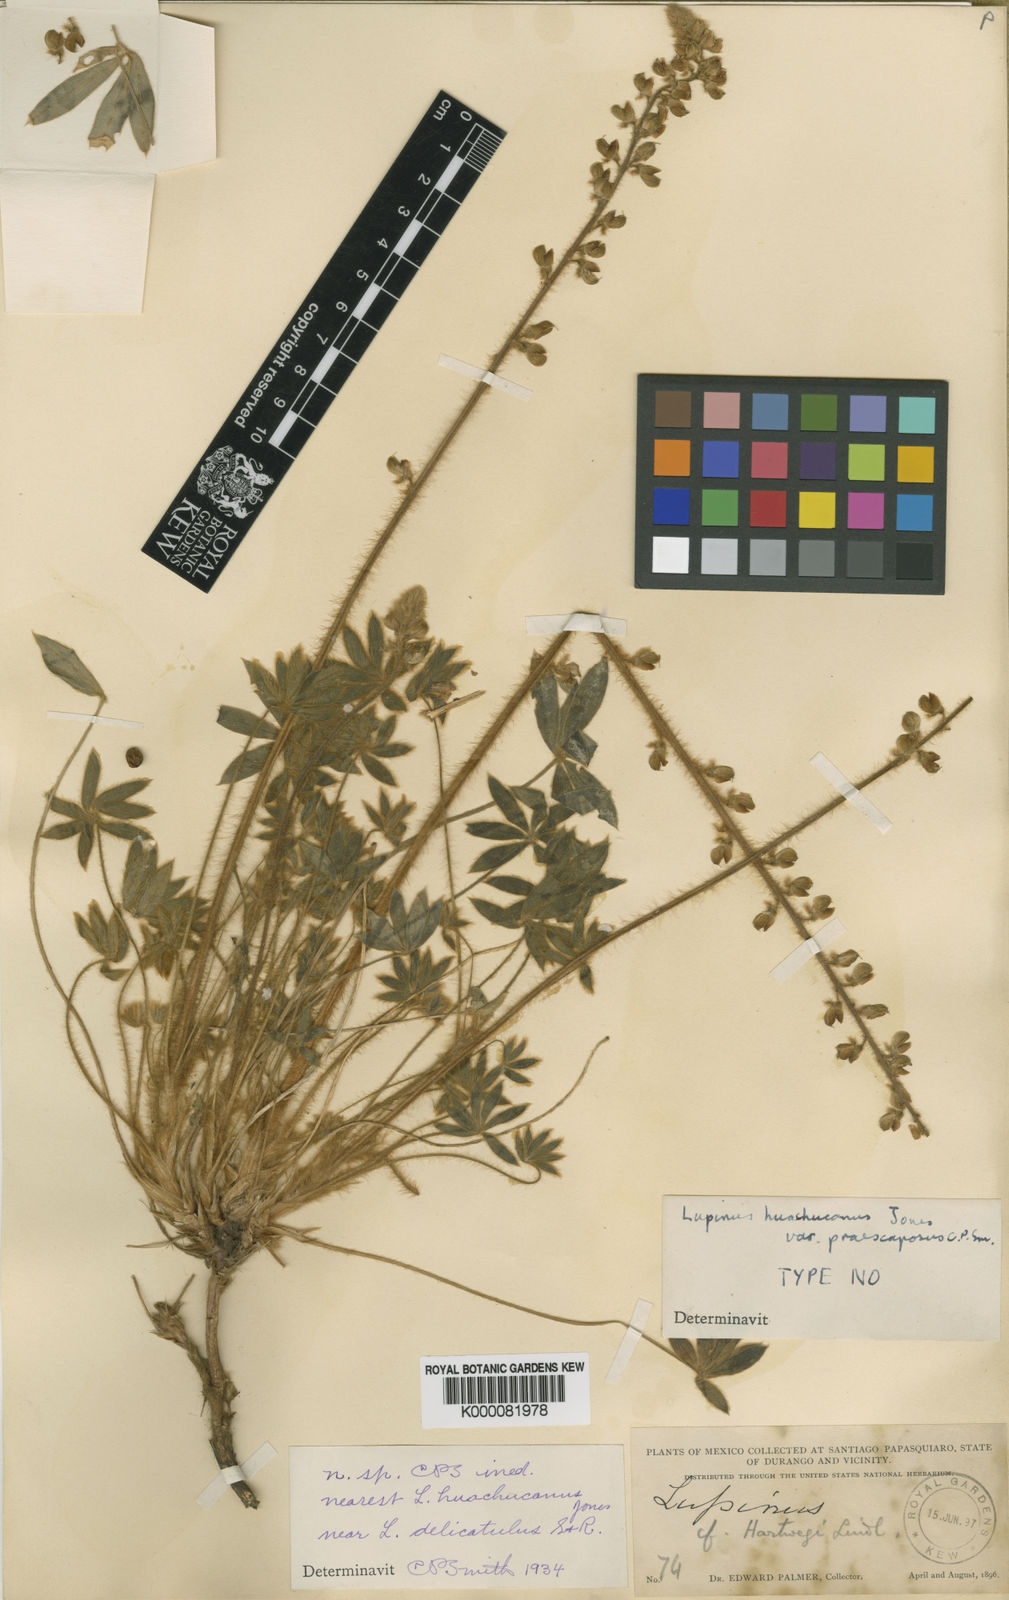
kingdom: Plantae
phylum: Tracheophyta
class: Magnoliopsida
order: Fabales
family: Fabaceae
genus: Lupinus
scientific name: Lupinus huachucanus
